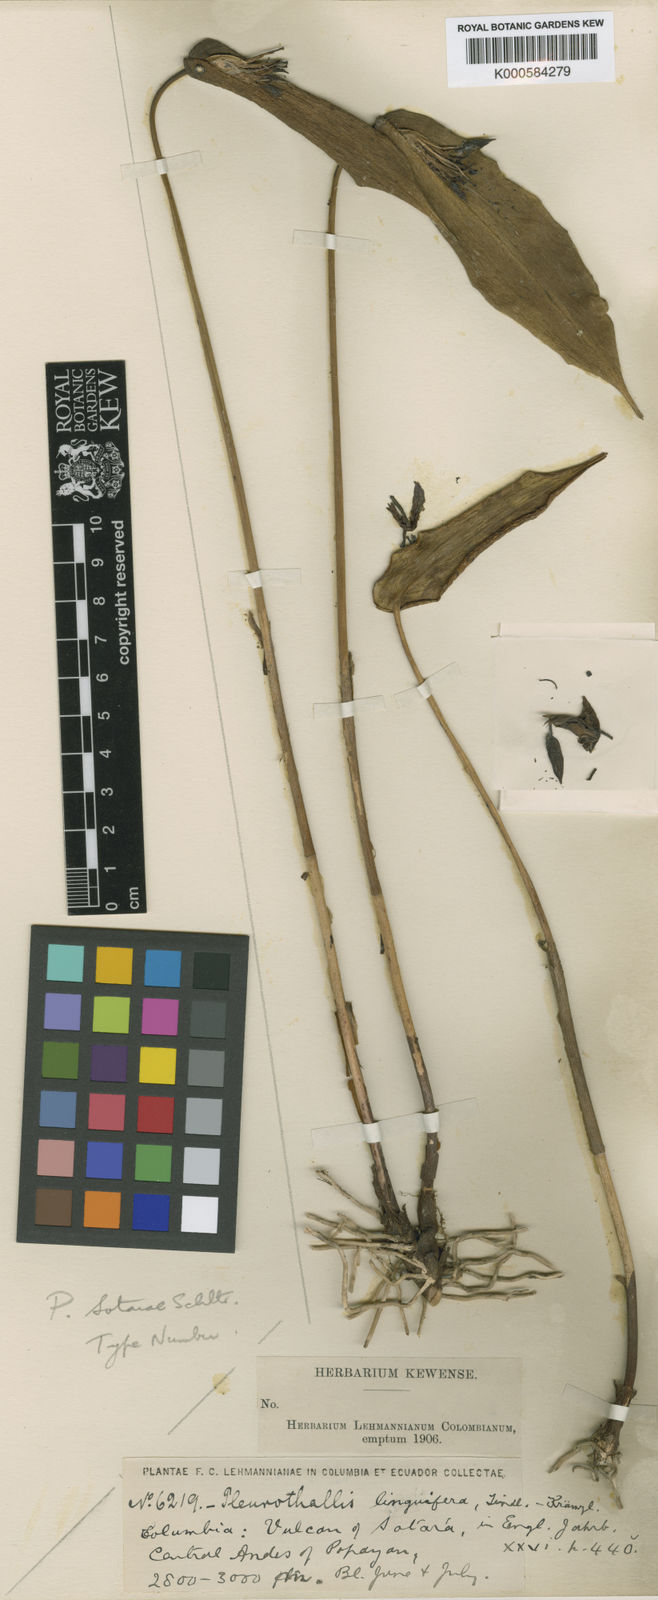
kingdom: Plantae
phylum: Tracheophyta
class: Liliopsida
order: Asparagales
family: Orchidaceae
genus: Pleurothallis
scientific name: Pleurothallis sotarae
